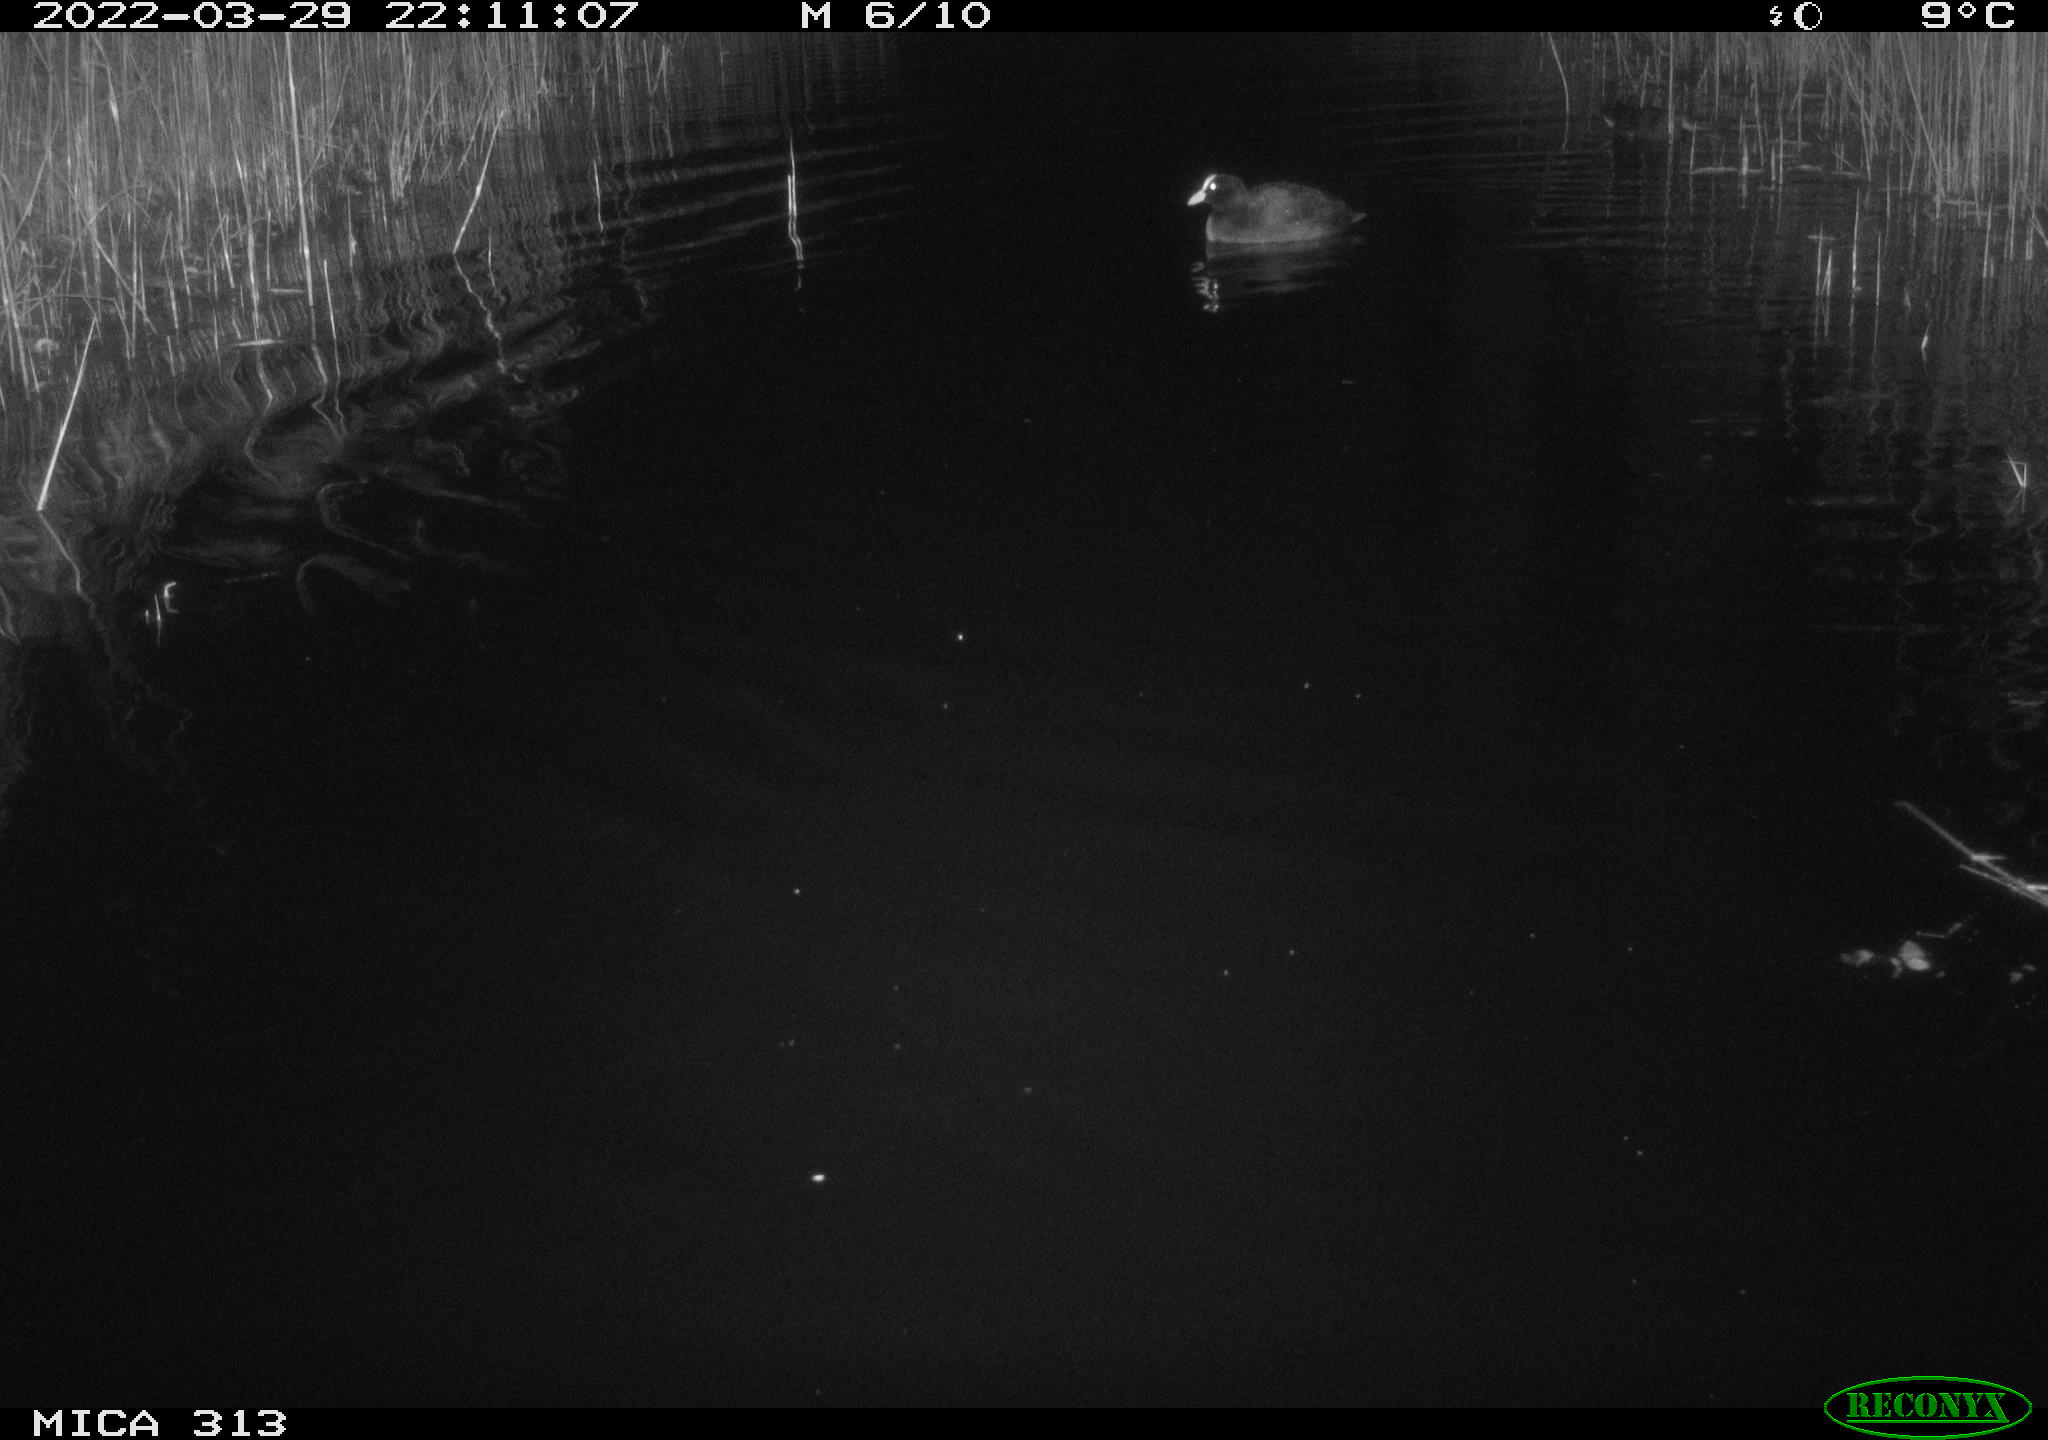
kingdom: Animalia
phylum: Chordata
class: Aves
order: Gruiformes
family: Rallidae
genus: Fulica
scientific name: Fulica atra
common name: Eurasian coot
